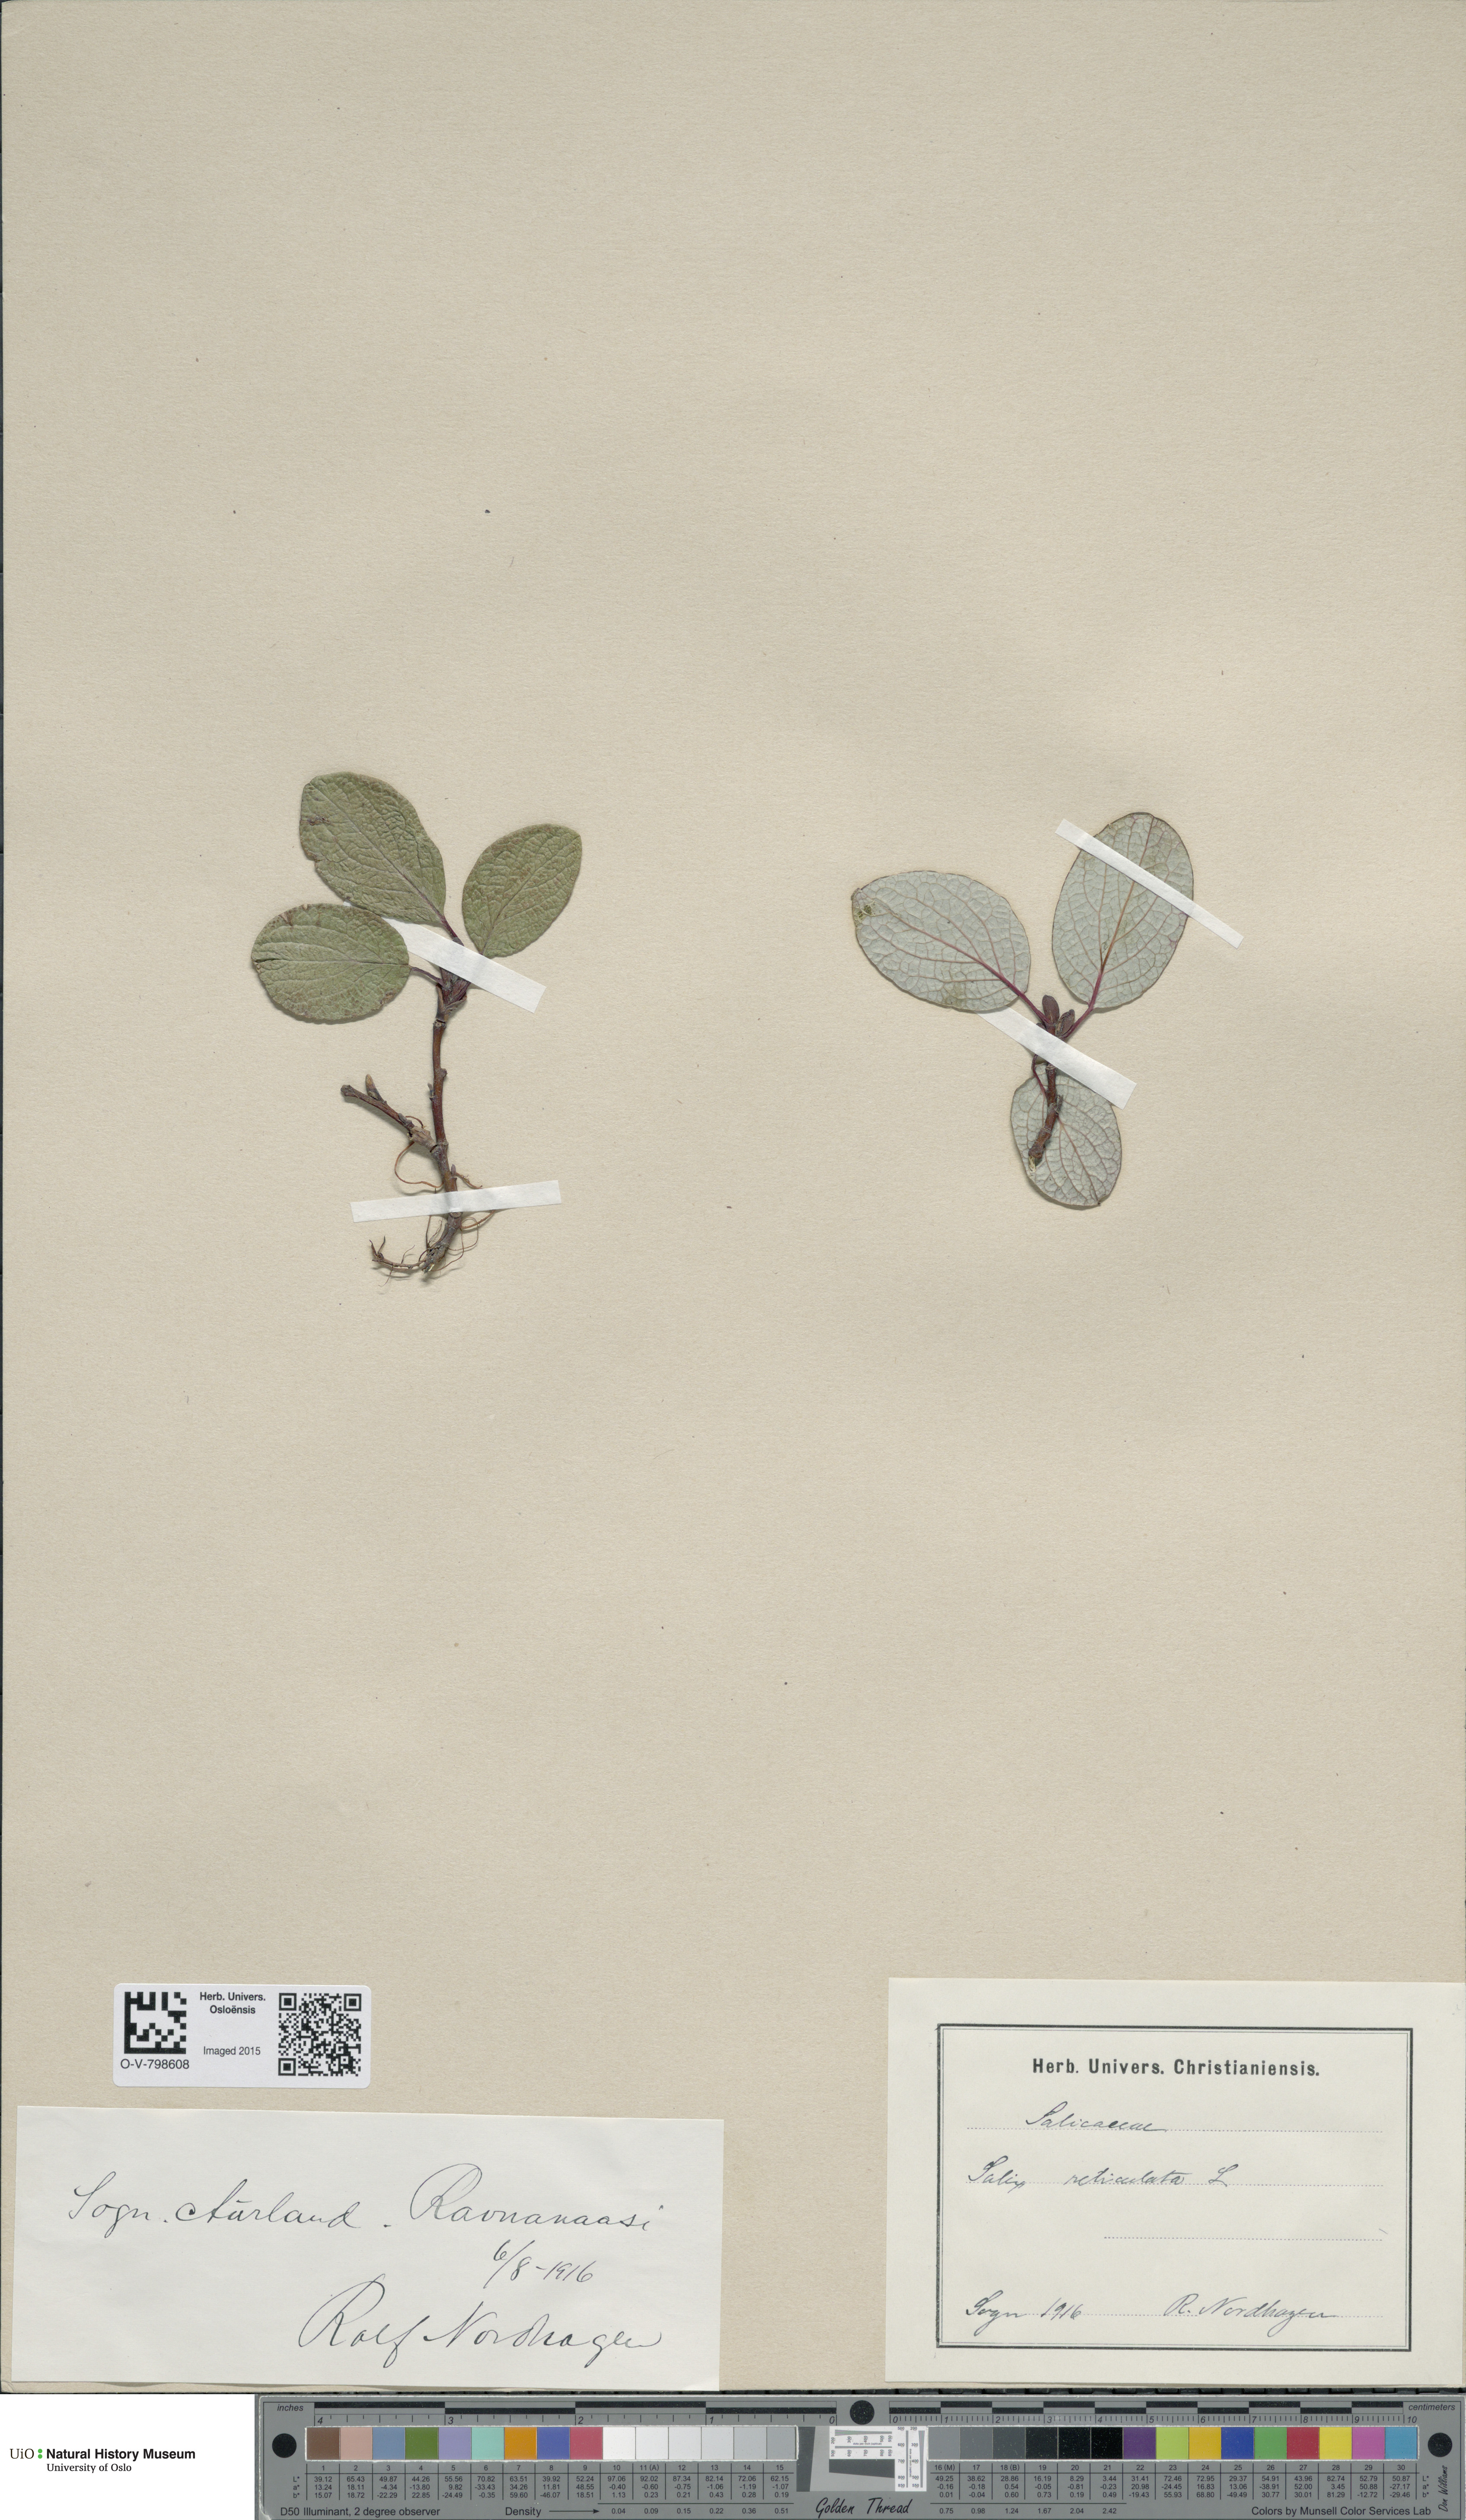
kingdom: Plantae
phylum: Tracheophyta
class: Magnoliopsida
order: Malpighiales
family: Salicaceae
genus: Salix
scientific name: Salix reticulata
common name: Net-leaved willow
